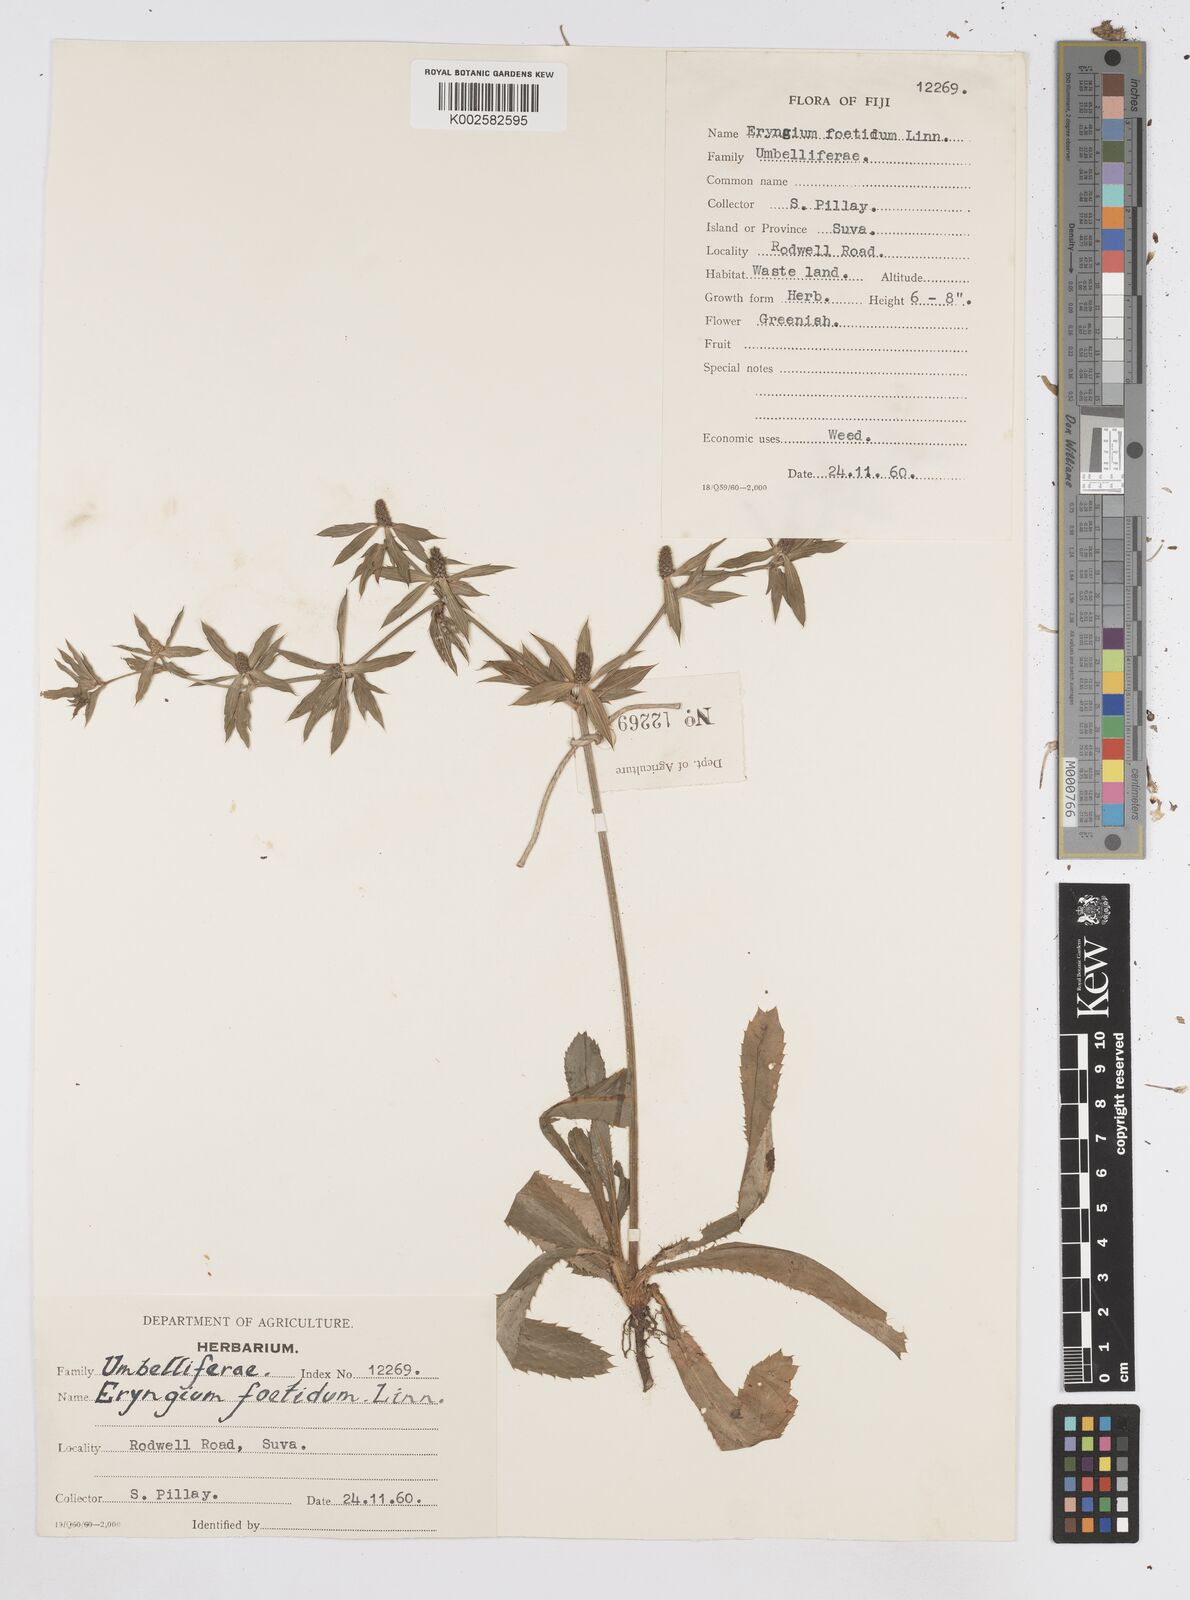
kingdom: Plantae
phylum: Tracheophyta
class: Magnoliopsida
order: Apiales
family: Apiaceae
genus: Eryngium
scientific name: Eryngium foetidum
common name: Fitweed
